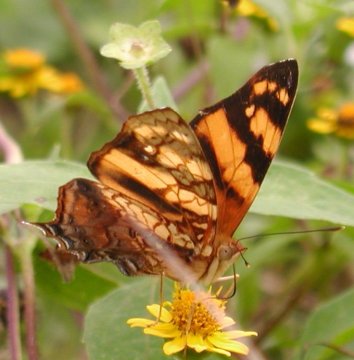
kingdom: Animalia
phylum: Arthropoda
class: Insecta
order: Lepidoptera
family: Nymphalidae
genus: Hypanartia
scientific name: Hypanartia lethe
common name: Orange Mapwing
